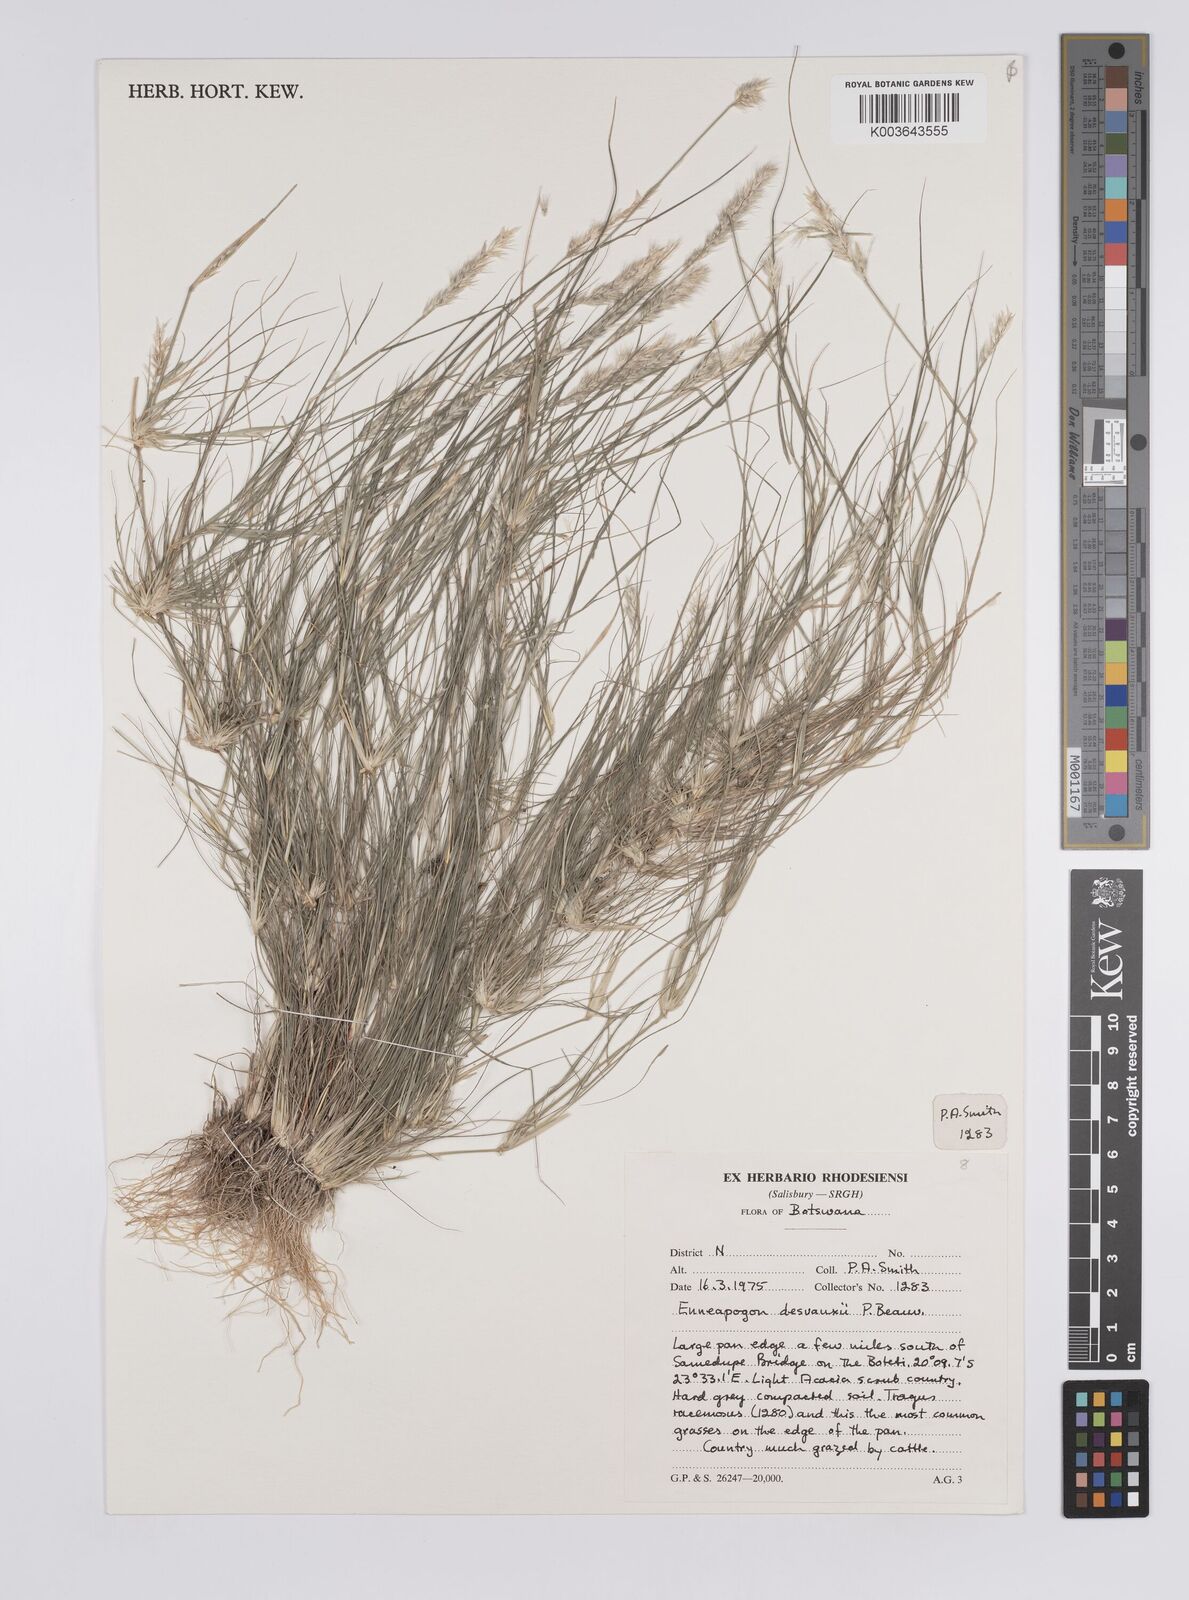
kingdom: Plantae
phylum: Tracheophyta
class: Liliopsida
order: Poales
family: Poaceae
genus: Enneapogon
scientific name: Enneapogon desvauxii
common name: Feather pappus grass
